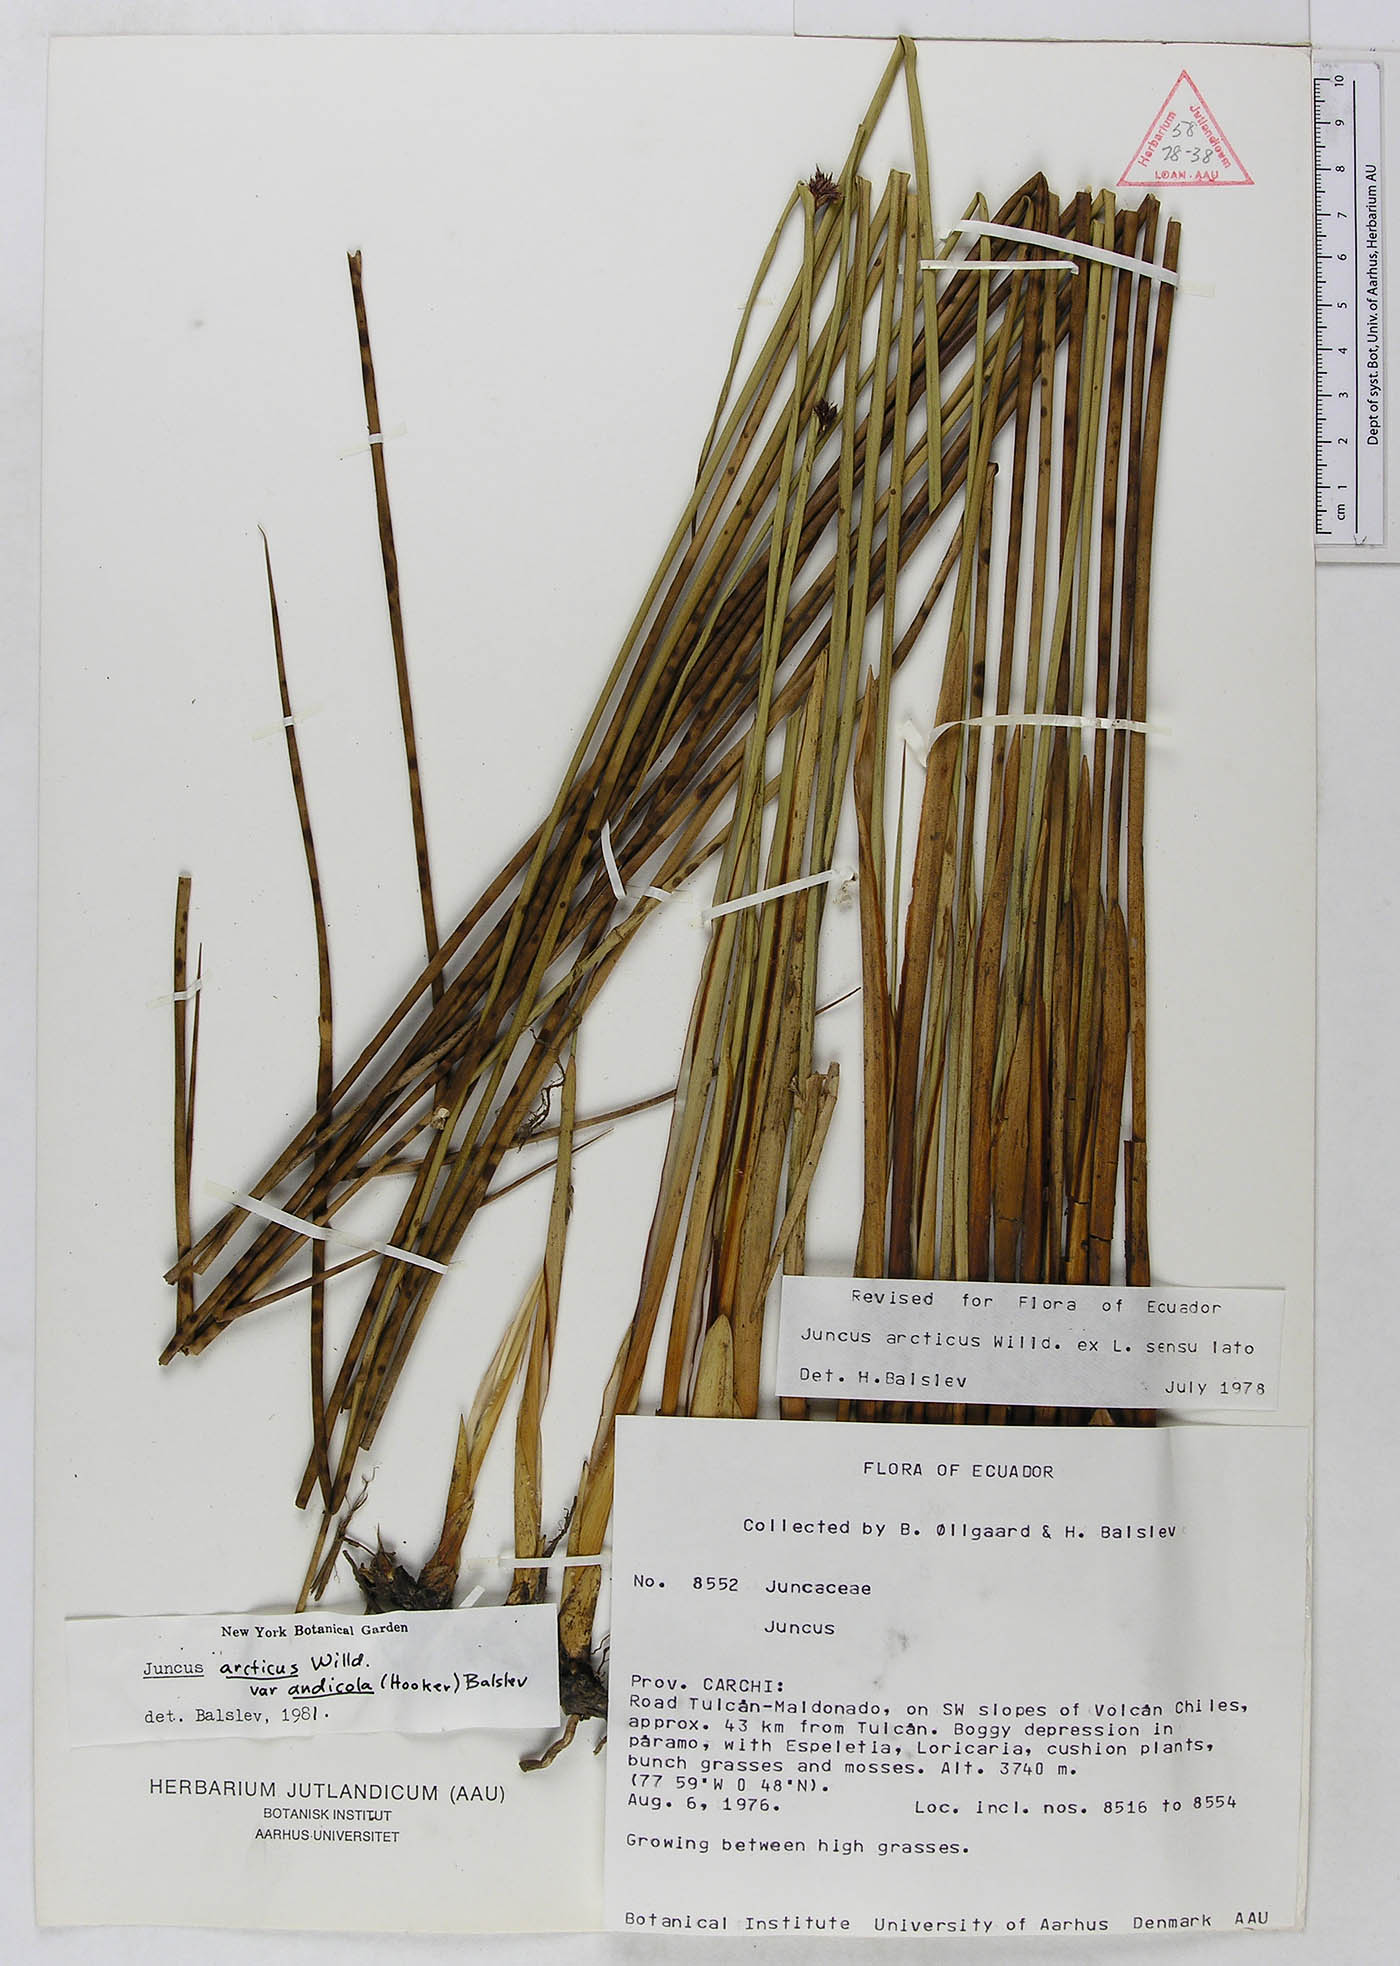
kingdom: Plantae
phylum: Tracheophyta
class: Liliopsida
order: Poales
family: Juncaceae
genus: Juncus
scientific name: Juncus balticus
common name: Baltic rush
